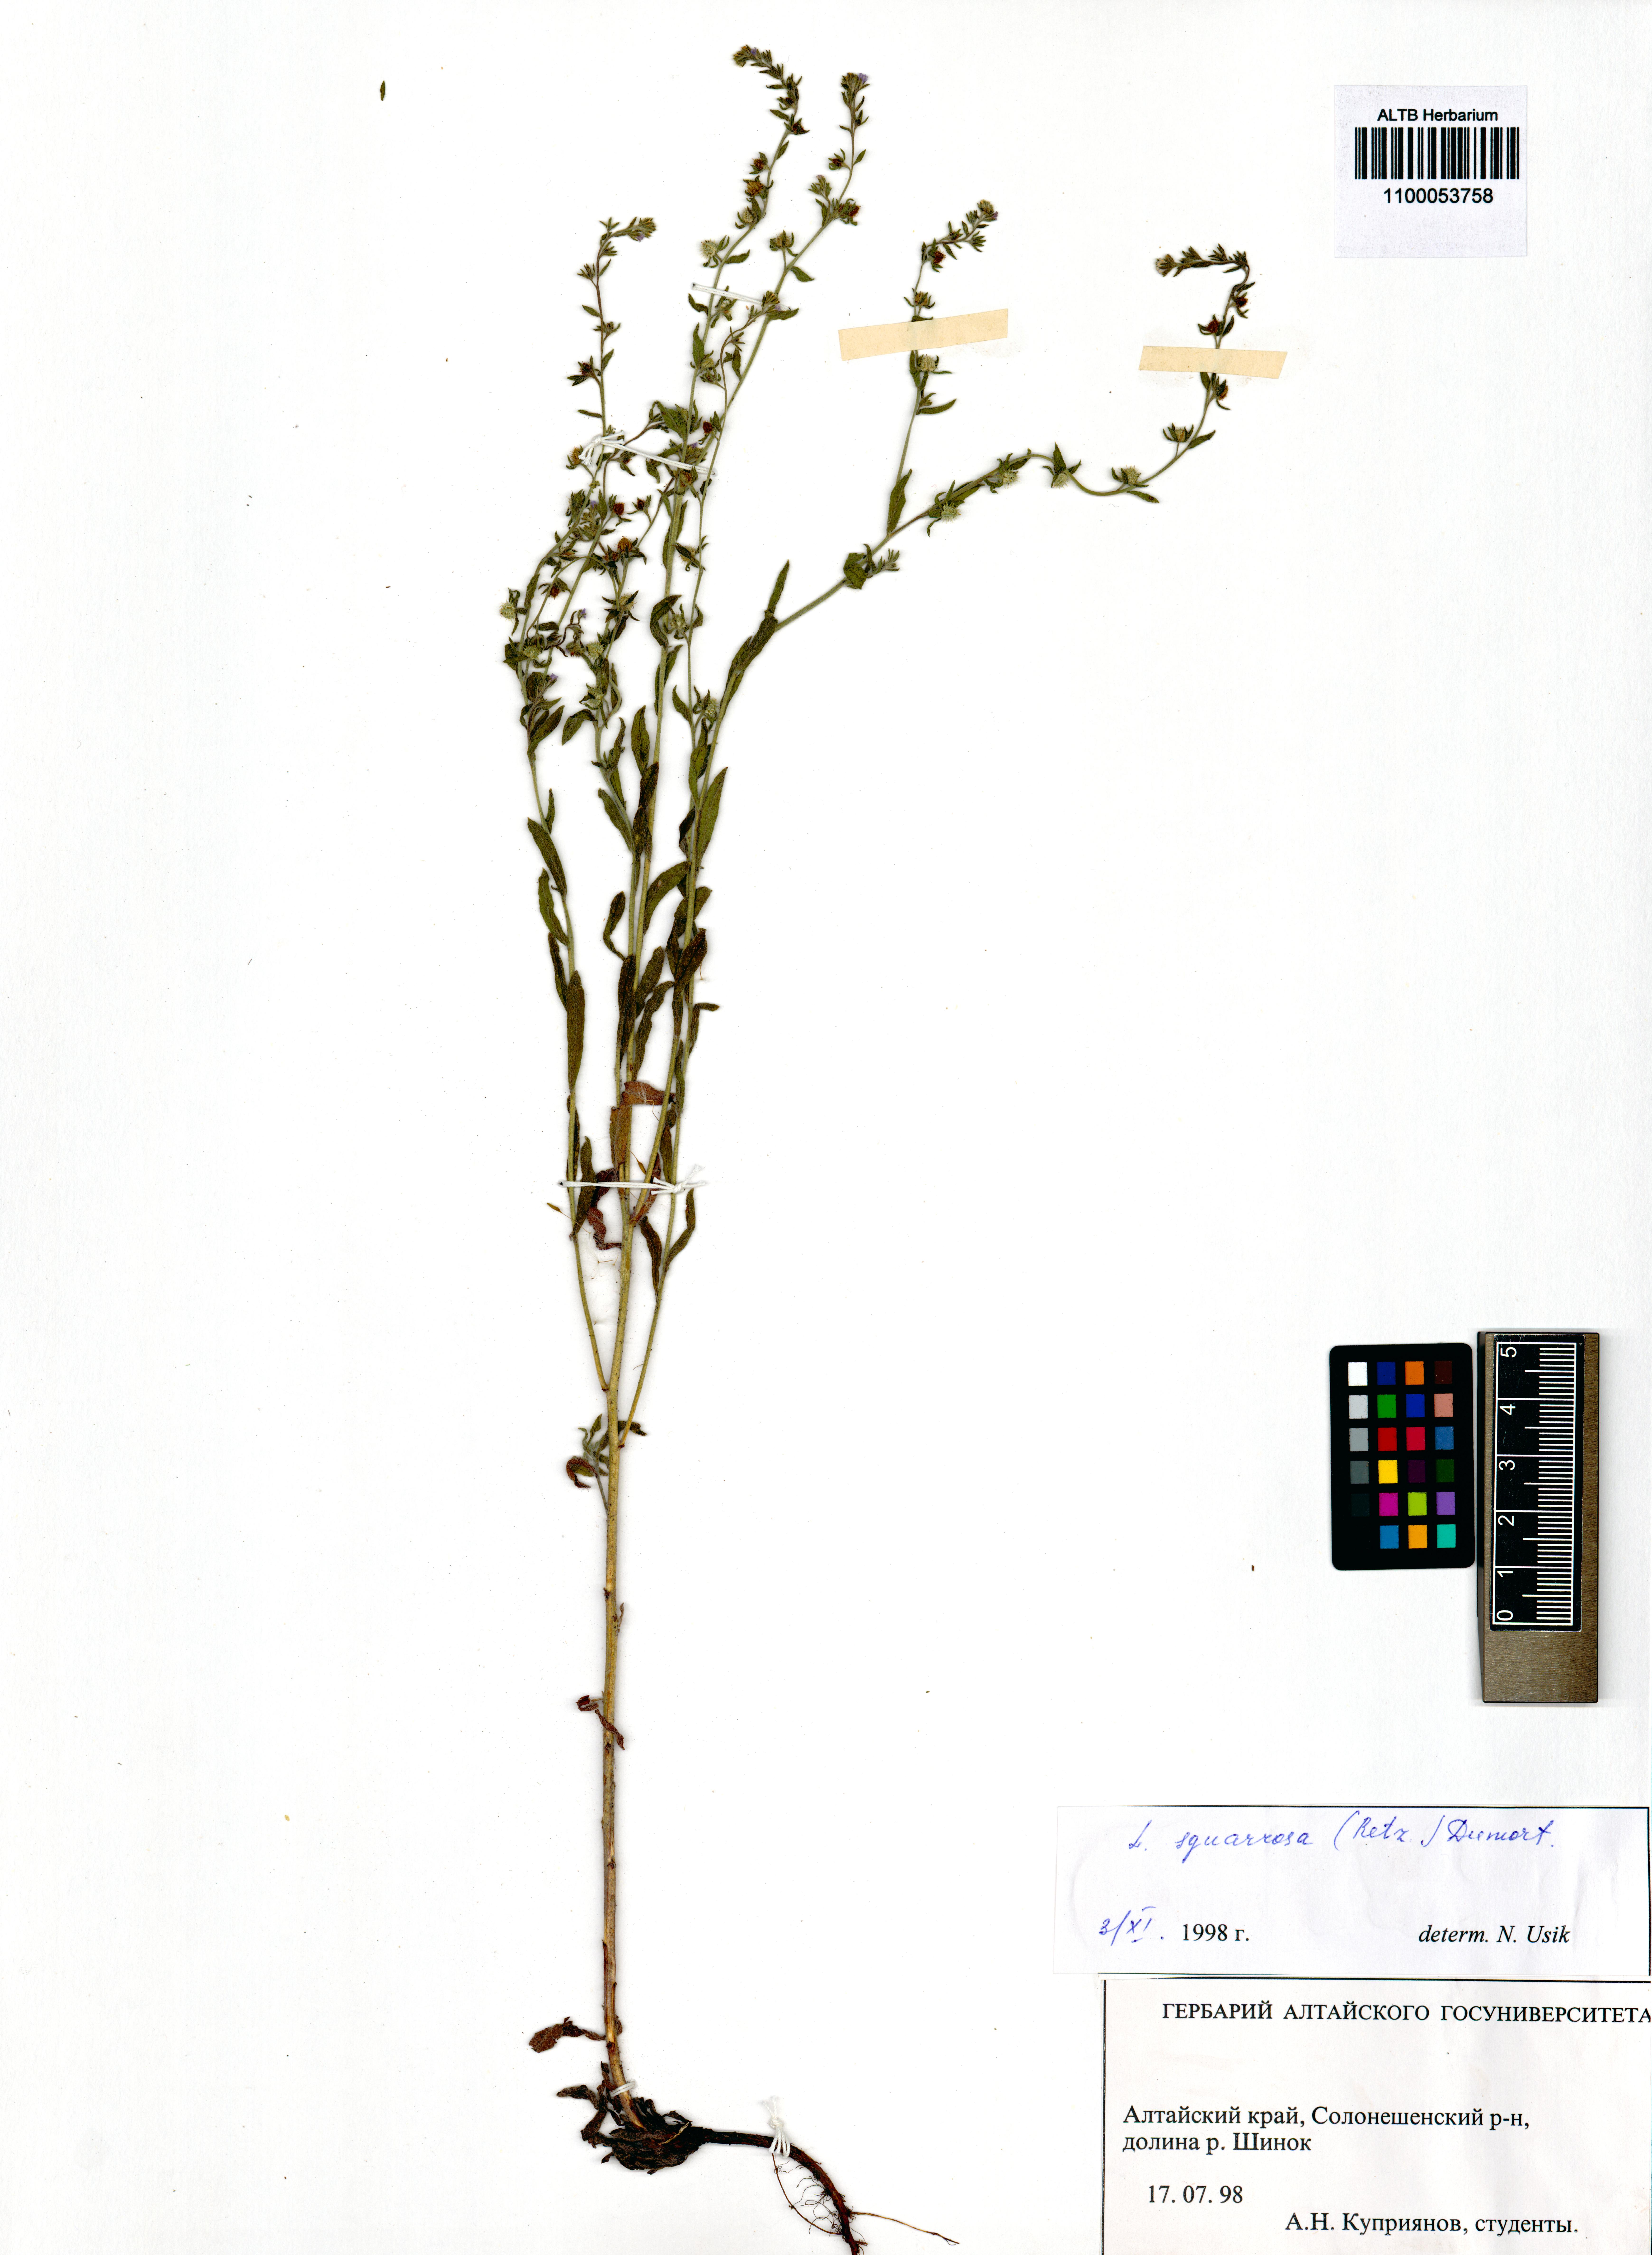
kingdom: Plantae
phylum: Tracheophyta
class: Magnoliopsida
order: Boraginales
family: Boraginaceae
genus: Lappula
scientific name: Lappula squarrosa
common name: European stickseed
